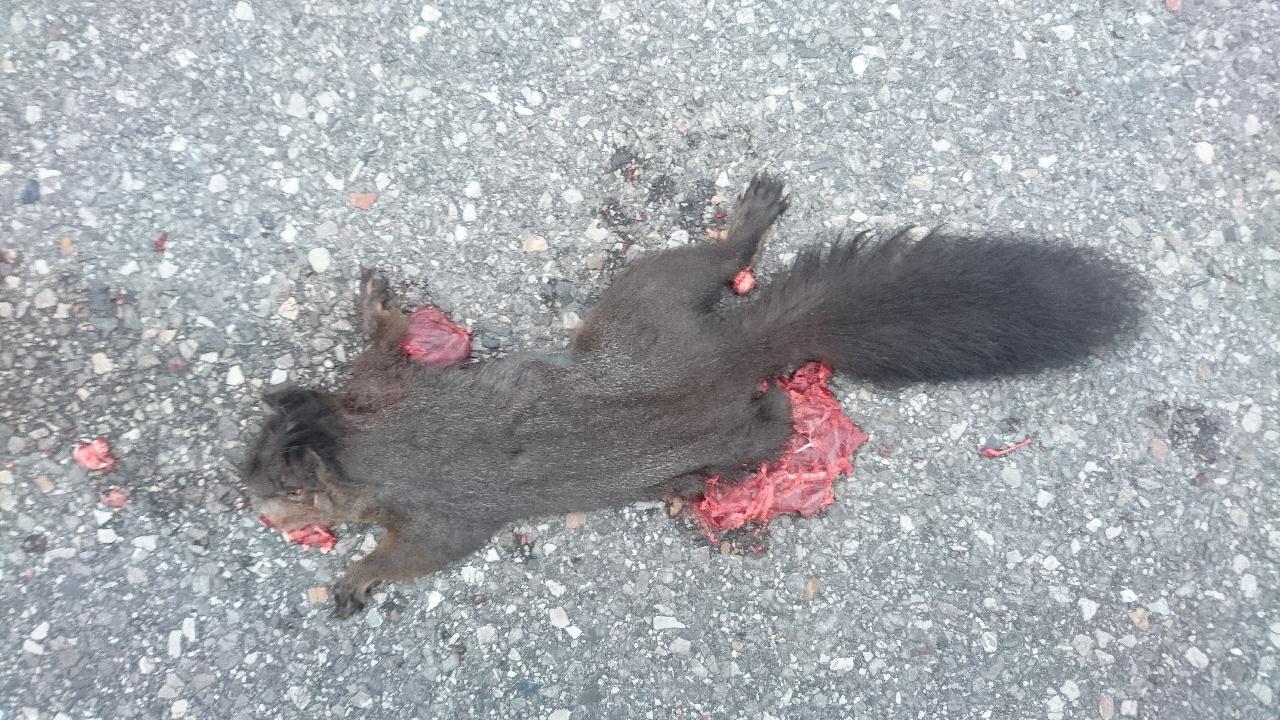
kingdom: Animalia
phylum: Chordata
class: Mammalia
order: Rodentia
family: Sciuridae
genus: Sciurus
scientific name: Sciurus vulgaris
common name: Eurasian red squirrel
